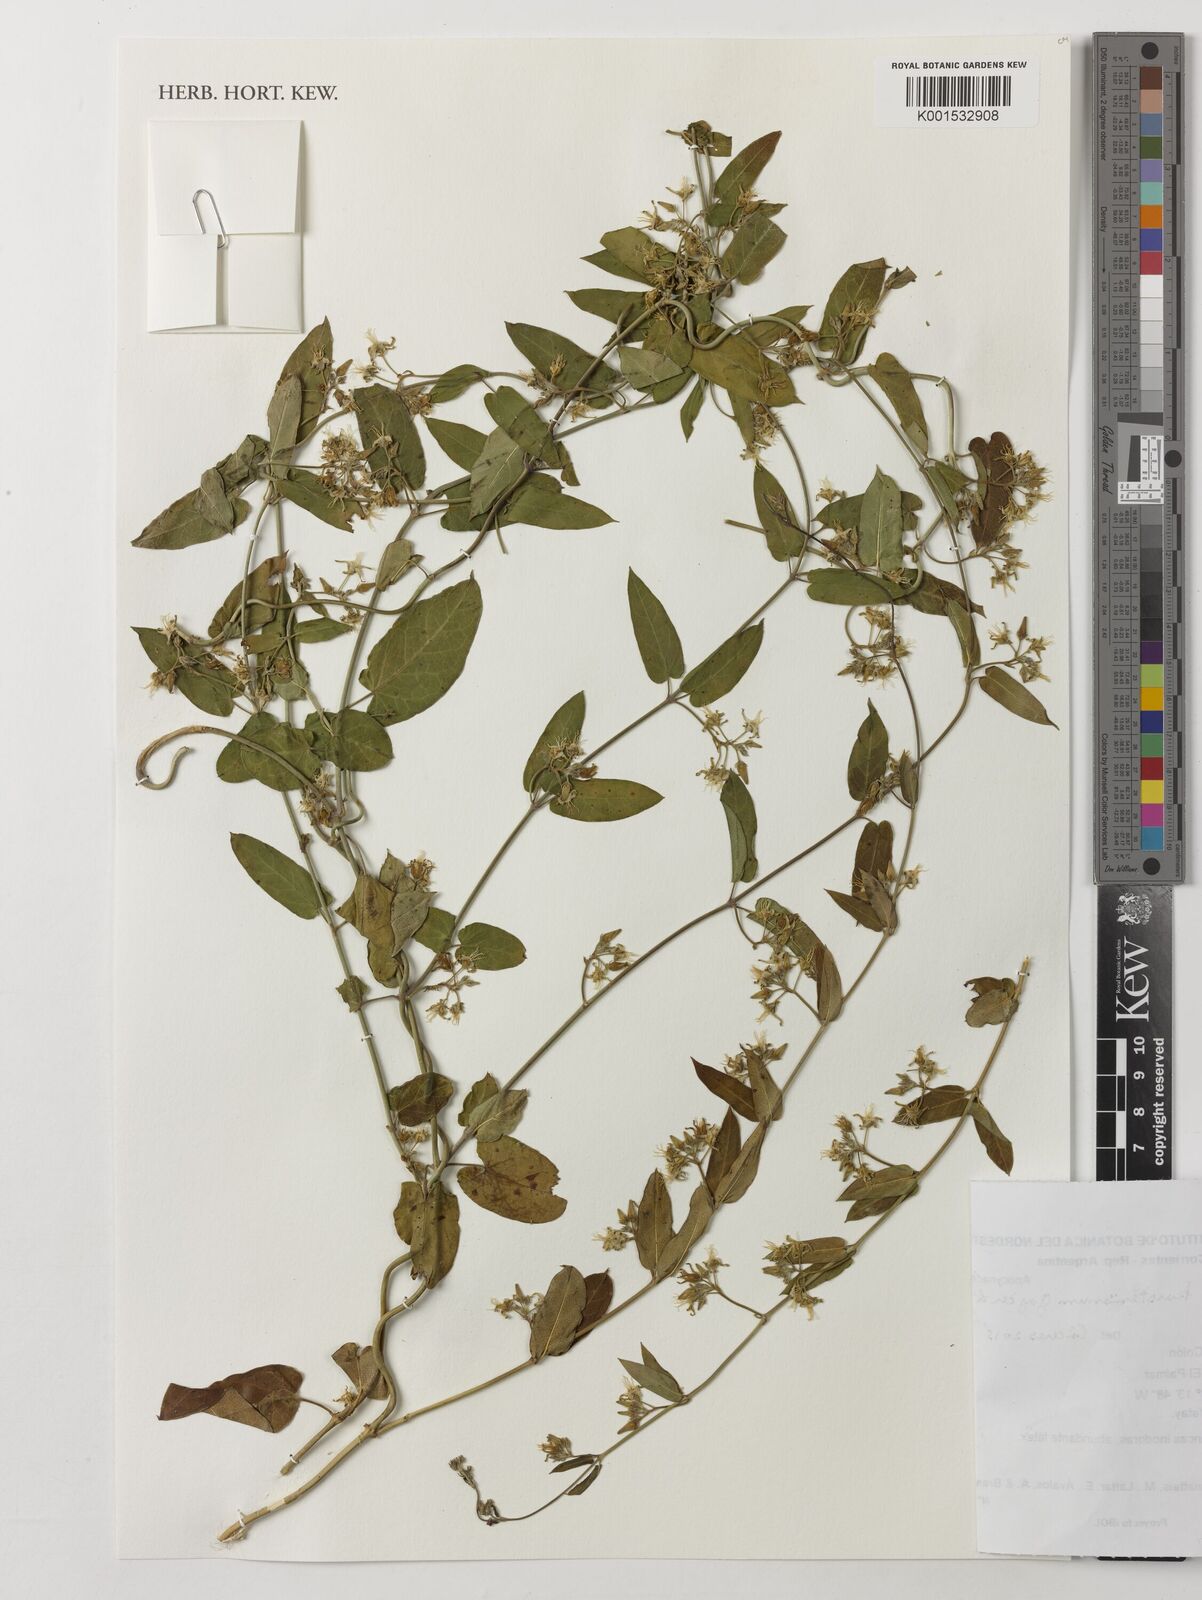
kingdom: Plantae
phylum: Tracheophyta
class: Magnoliopsida
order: Gentianales
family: Apocynaceae
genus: Oxypetalum
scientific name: Oxypetalum karstenianum
